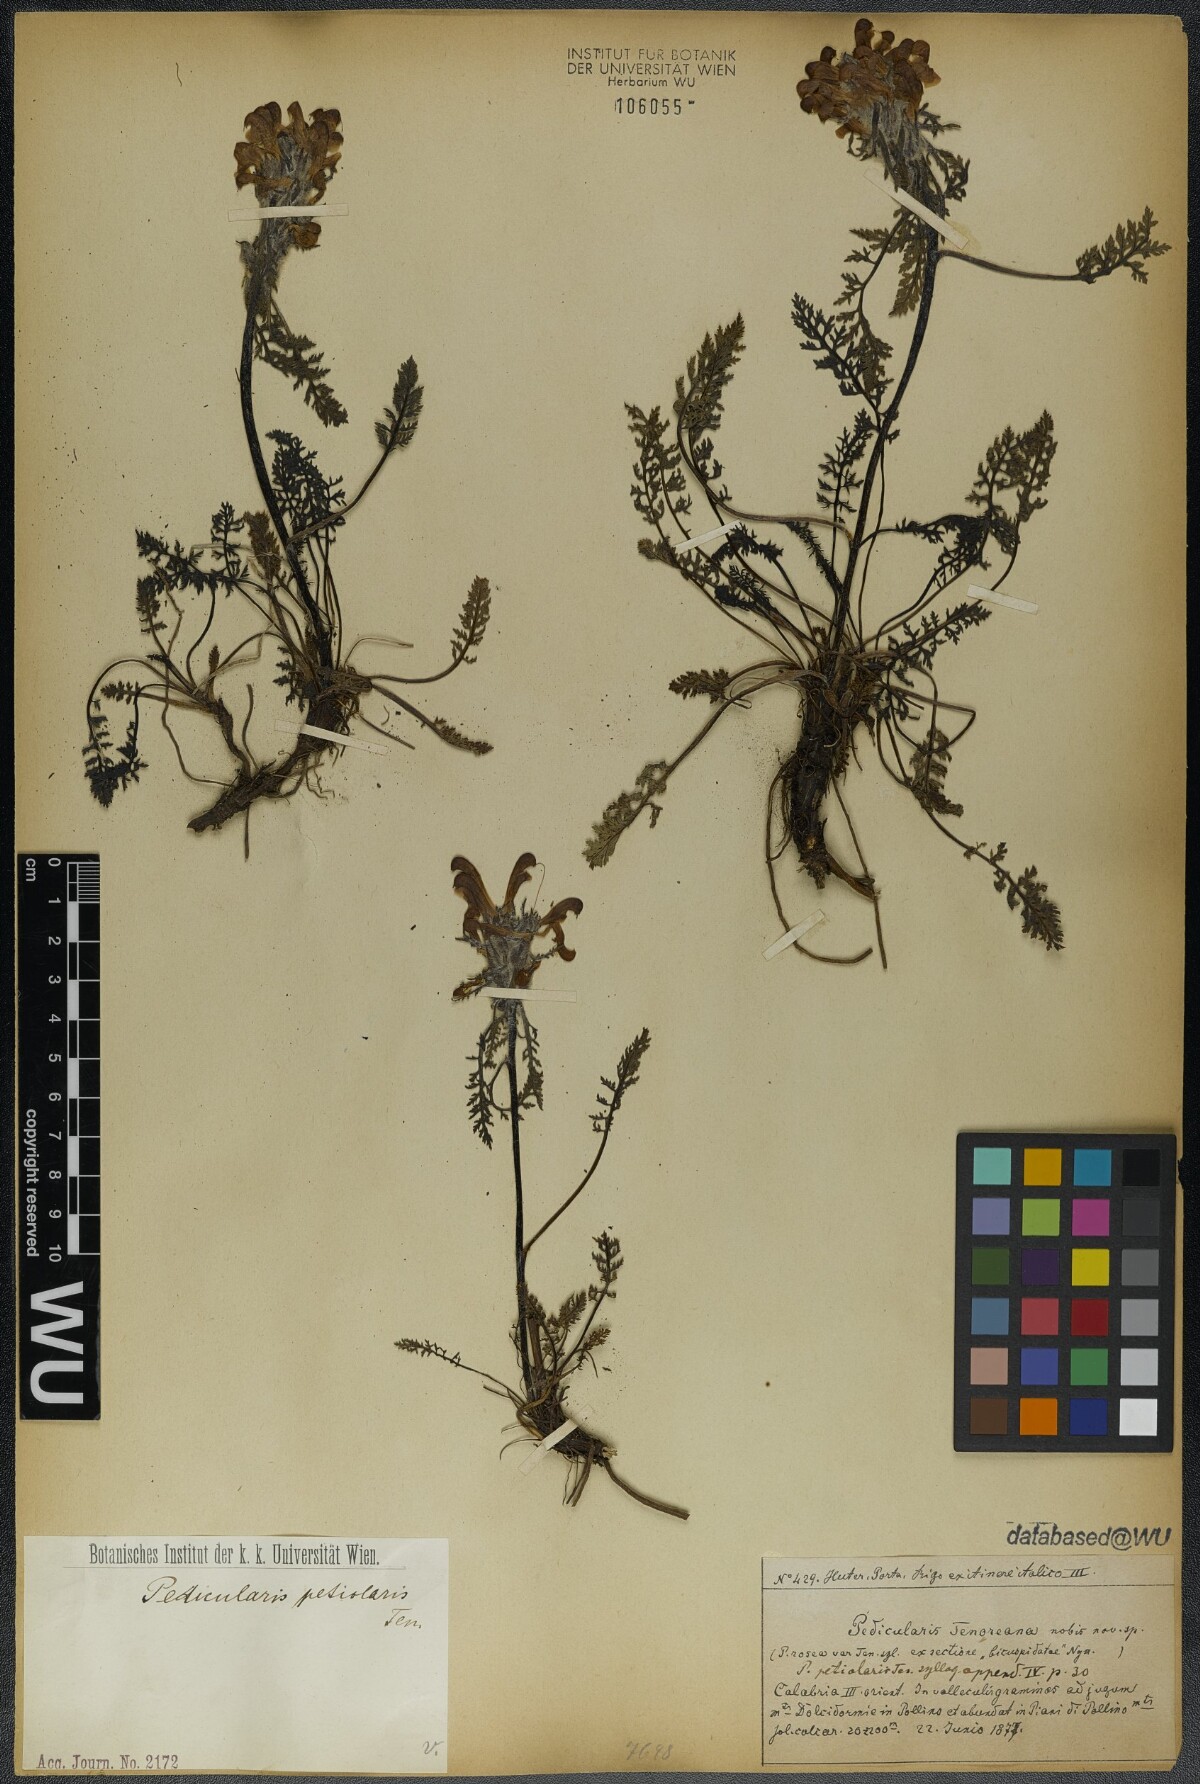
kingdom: Plantae
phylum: Tracheophyta
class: Magnoliopsida
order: Lamiales
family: Orobanchaceae
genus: Pedicularis
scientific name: Pedicularis petiolaris
